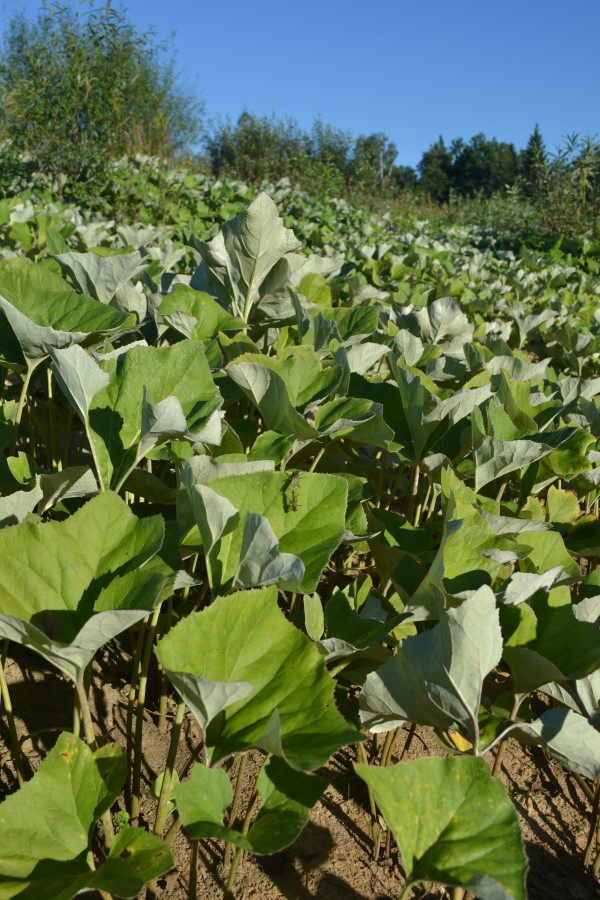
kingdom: Plantae
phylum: Tracheophyta
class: Magnoliopsida
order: Asterales
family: Asteraceae
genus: Petasites
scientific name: Petasites spurius
